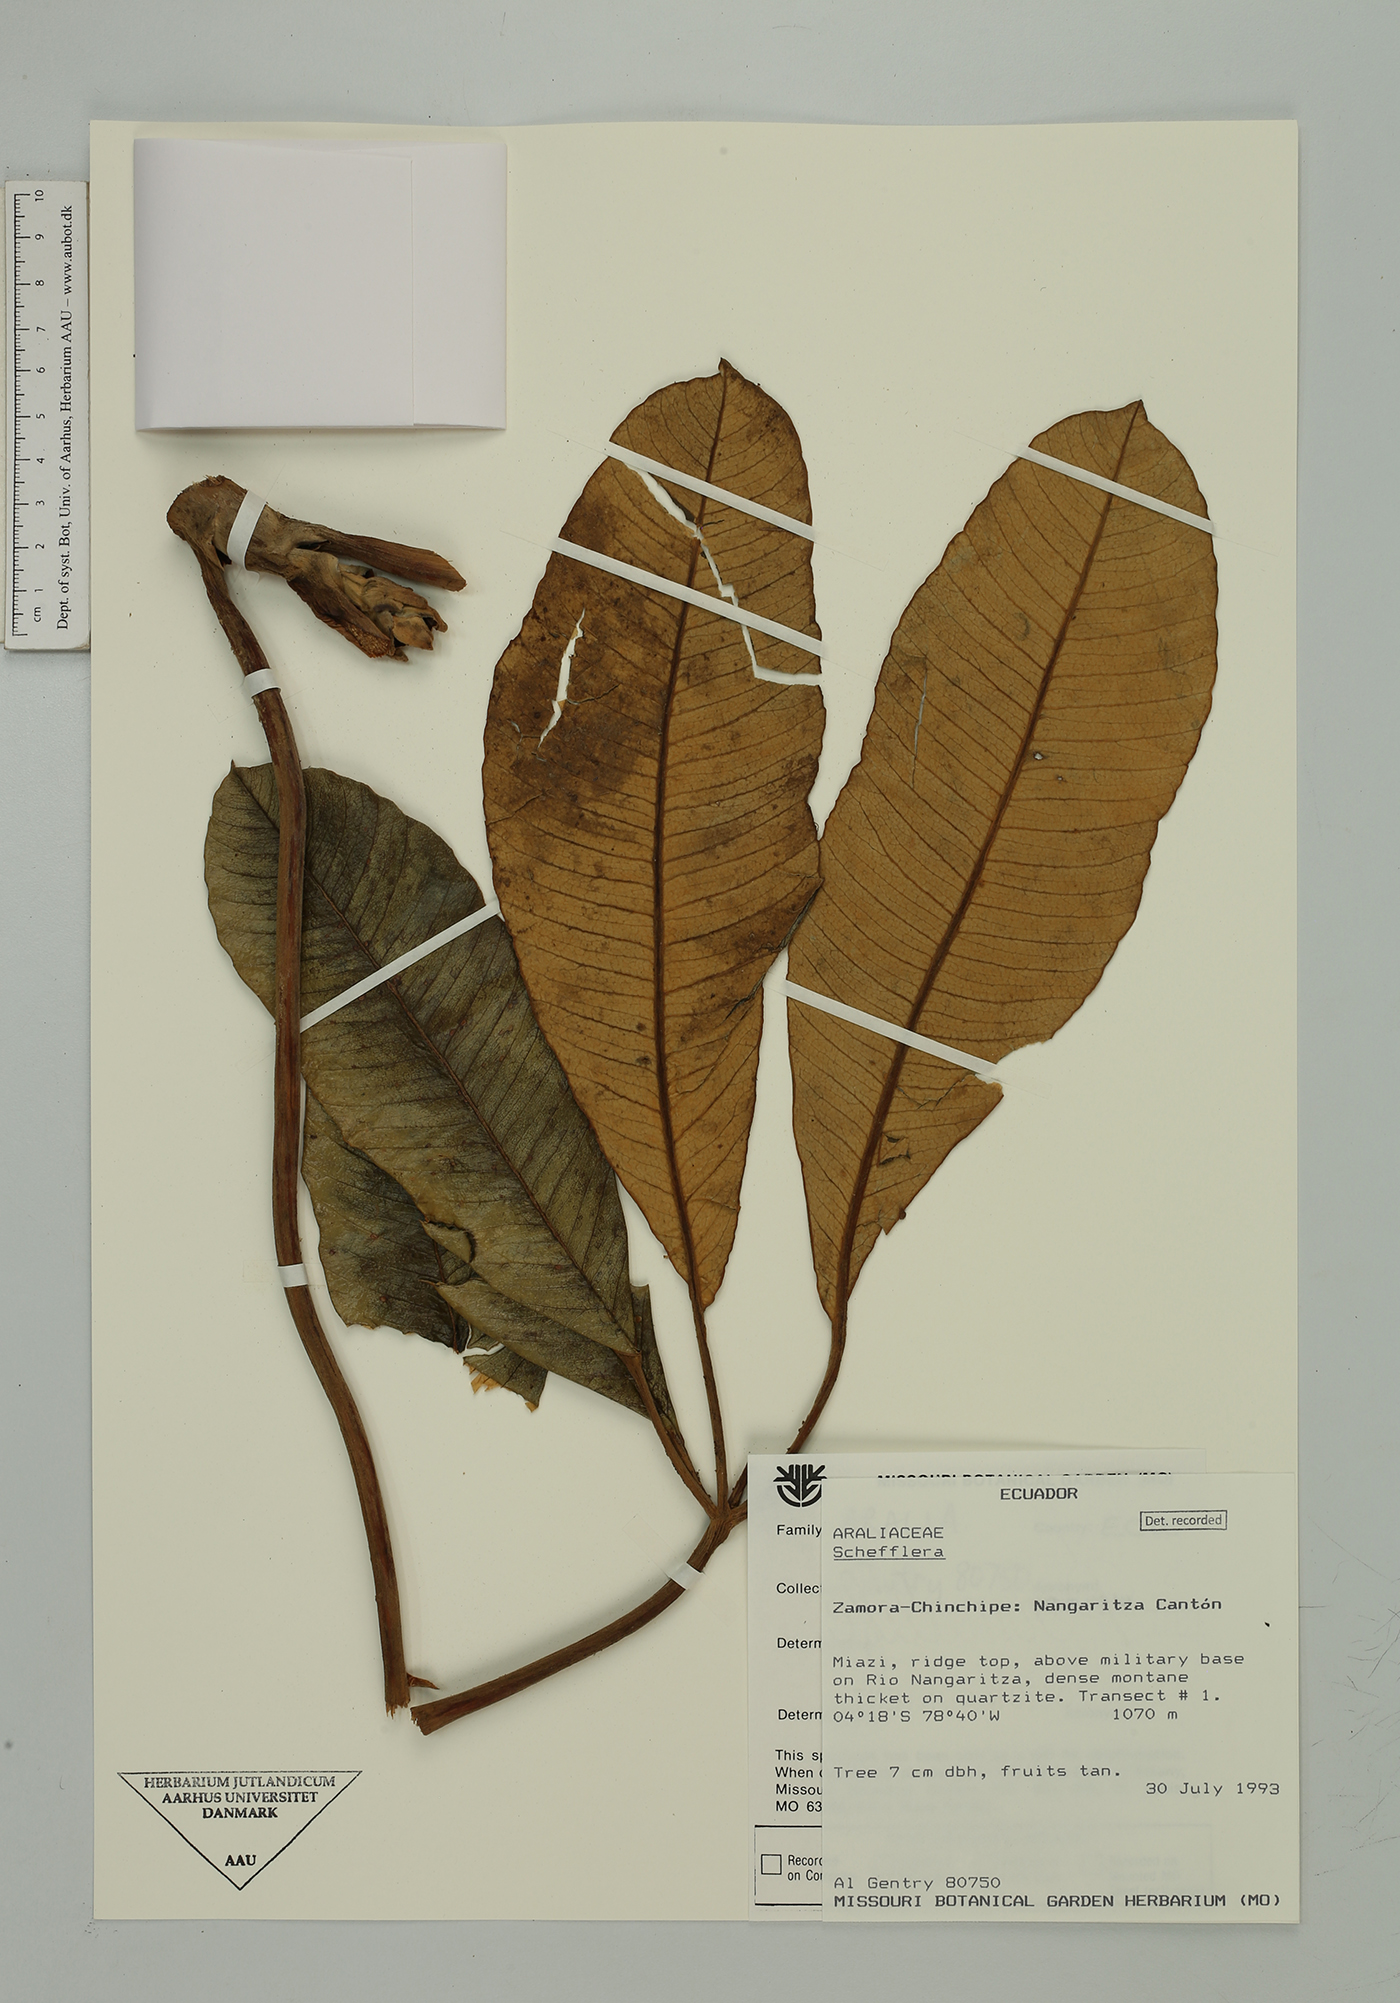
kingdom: Plantae
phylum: Tracheophyta
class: Magnoliopsida
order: Apiales
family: Araliaceae
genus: Crepinella
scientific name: Crepinella weberbaueri
